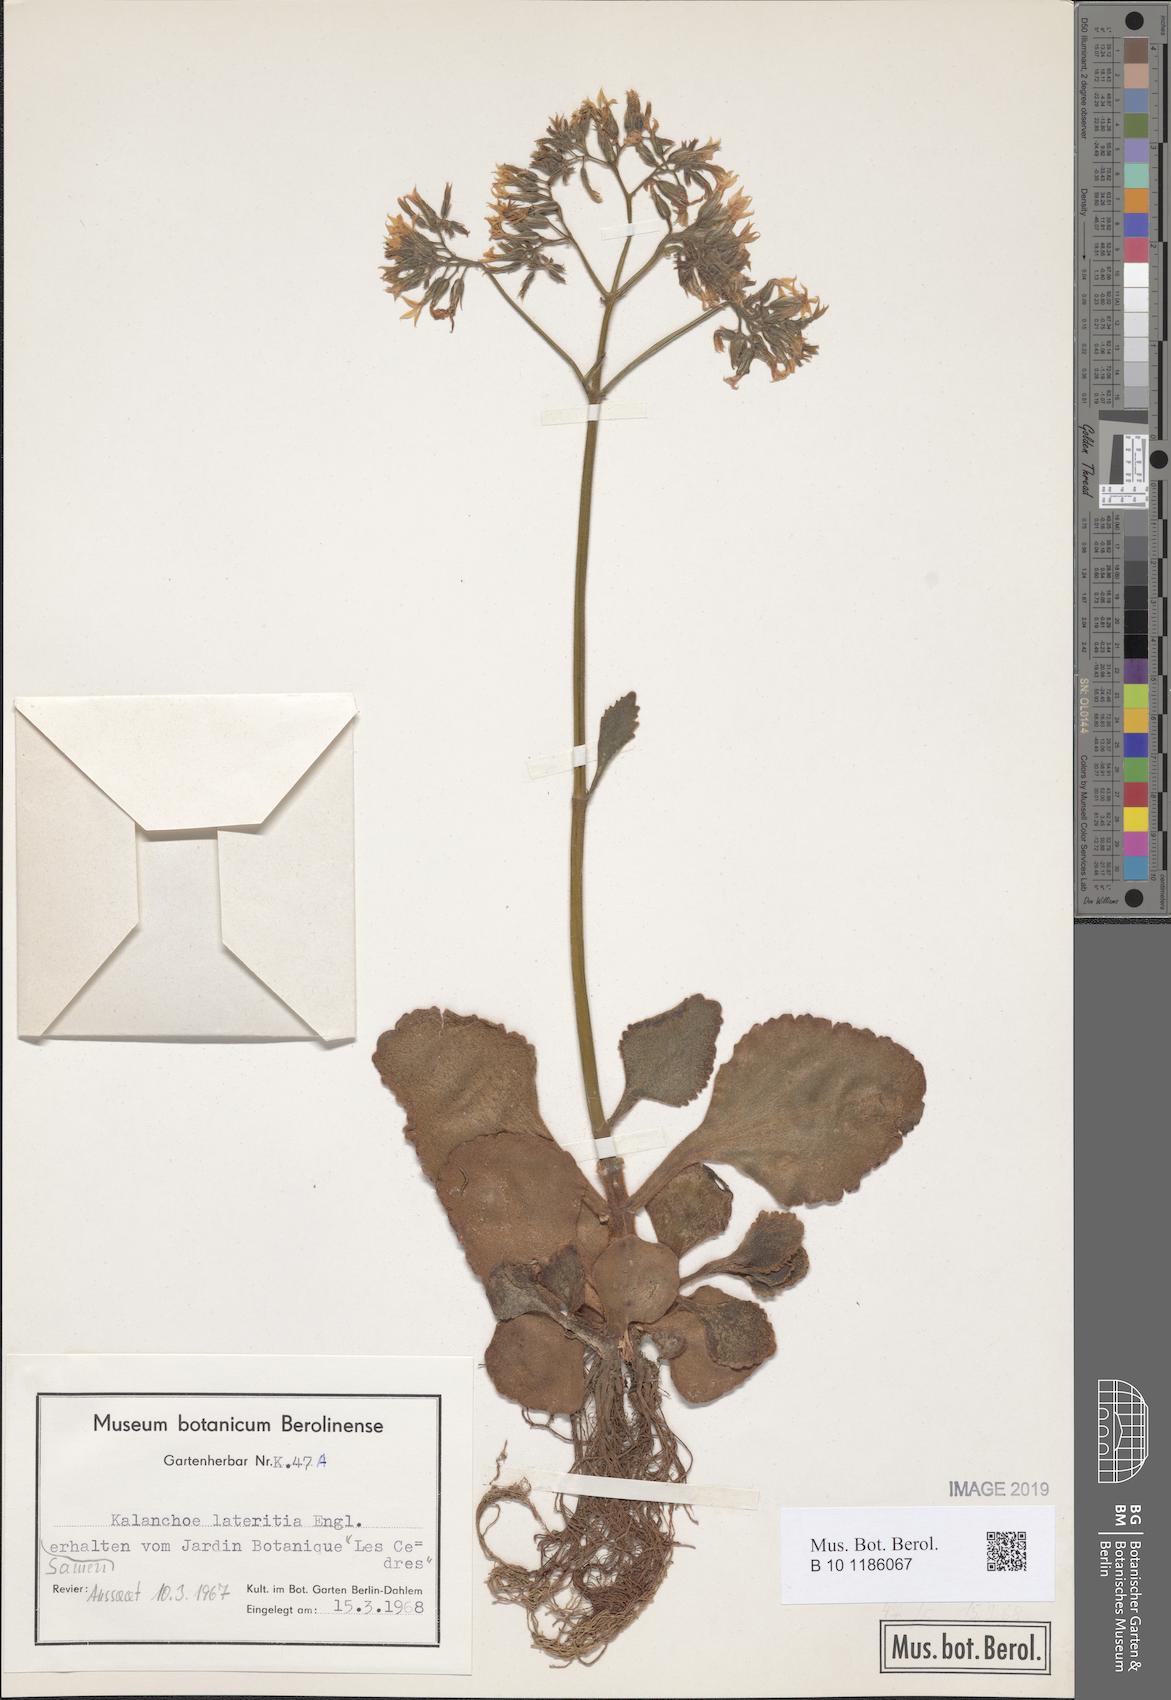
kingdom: Plantae
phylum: Tracheophyta
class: Magnoliopsida
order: Saxifragales
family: Crassulaceae
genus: Kalanchoe
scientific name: Kalanchoe lateritia
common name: Kalanchoe
